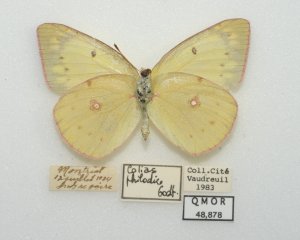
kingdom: Animalia
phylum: Arthropoda
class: Insecta
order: Lepidoptera
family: Pieridae
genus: Colias
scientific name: Colias philodice
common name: Clouded Sulphur
